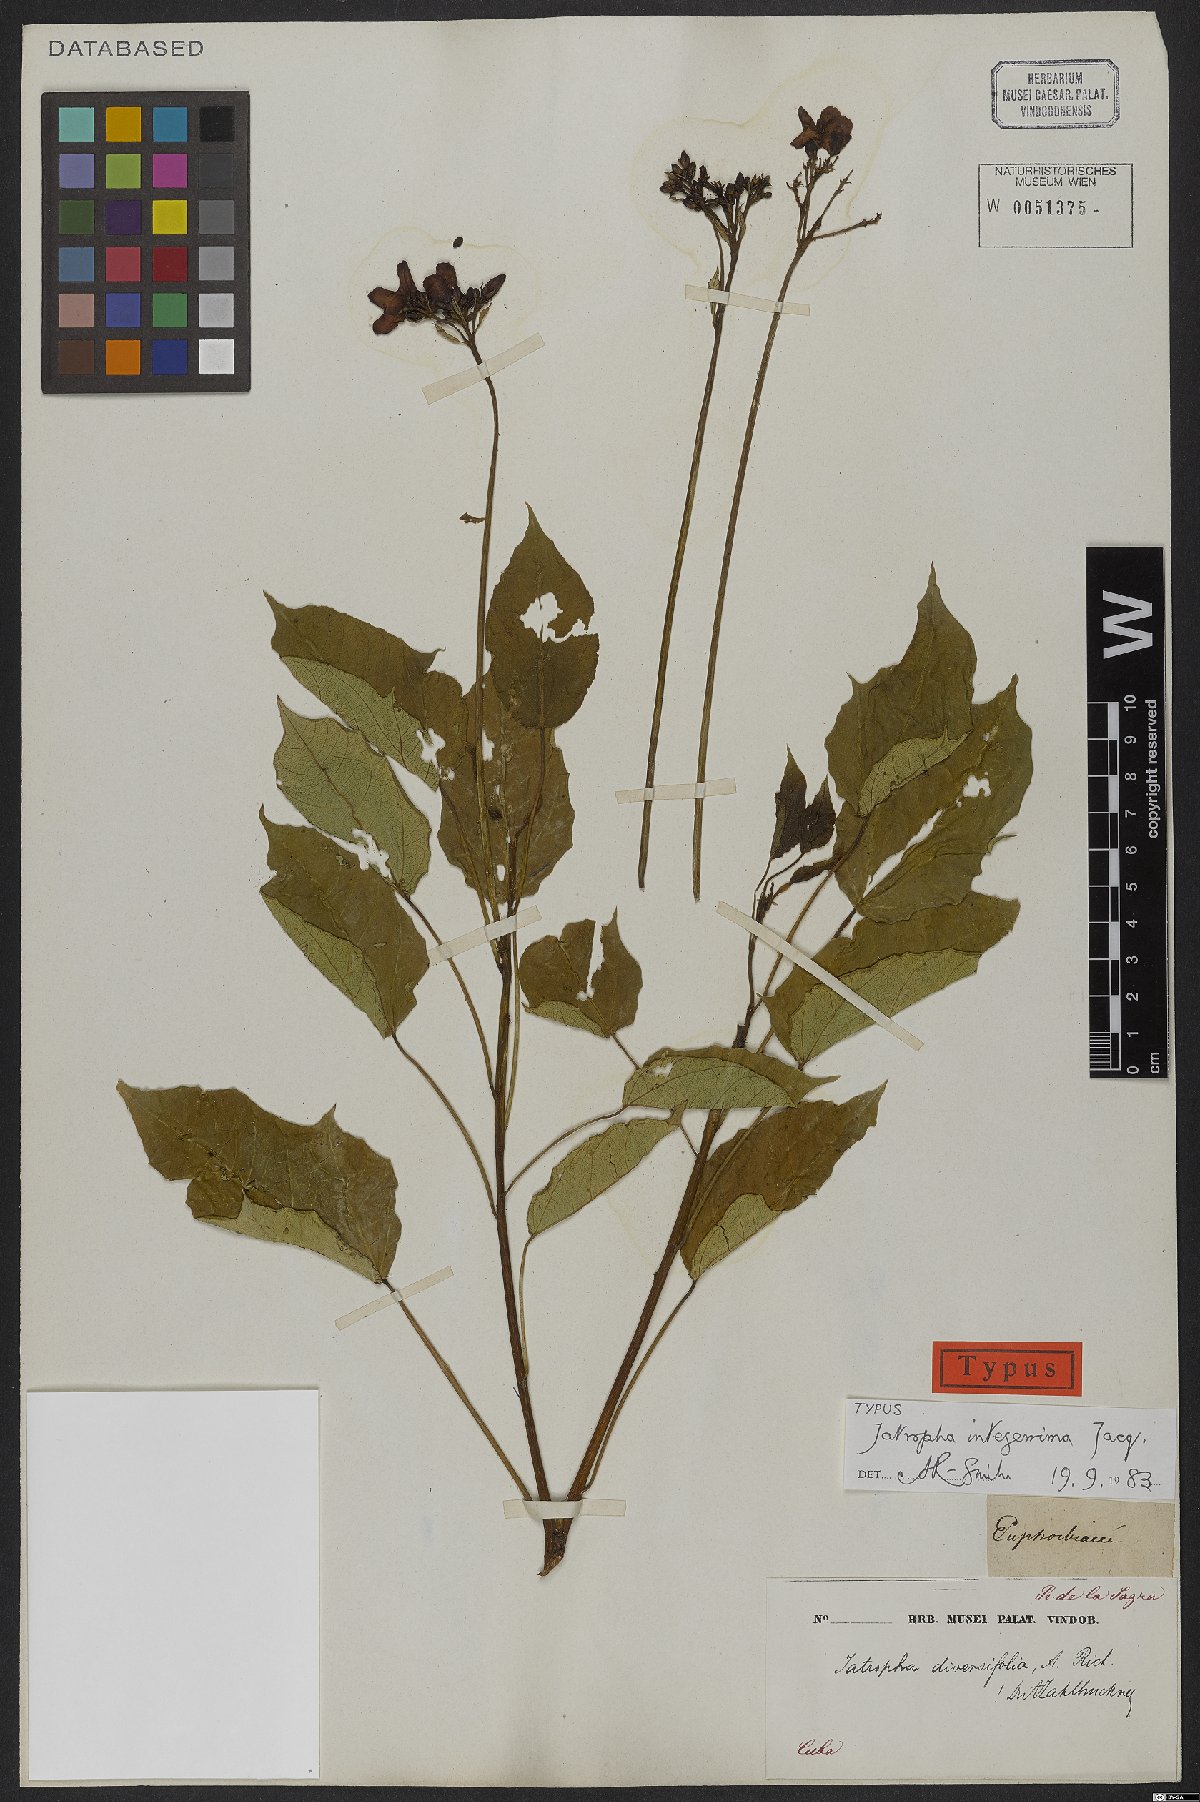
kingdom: Plantae
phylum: Tracheophyta
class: Magnoliopsida
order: Malpighiales
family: Euphorbiaceae
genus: Jatropha
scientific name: Jatropha integerrima
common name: Peregrina
